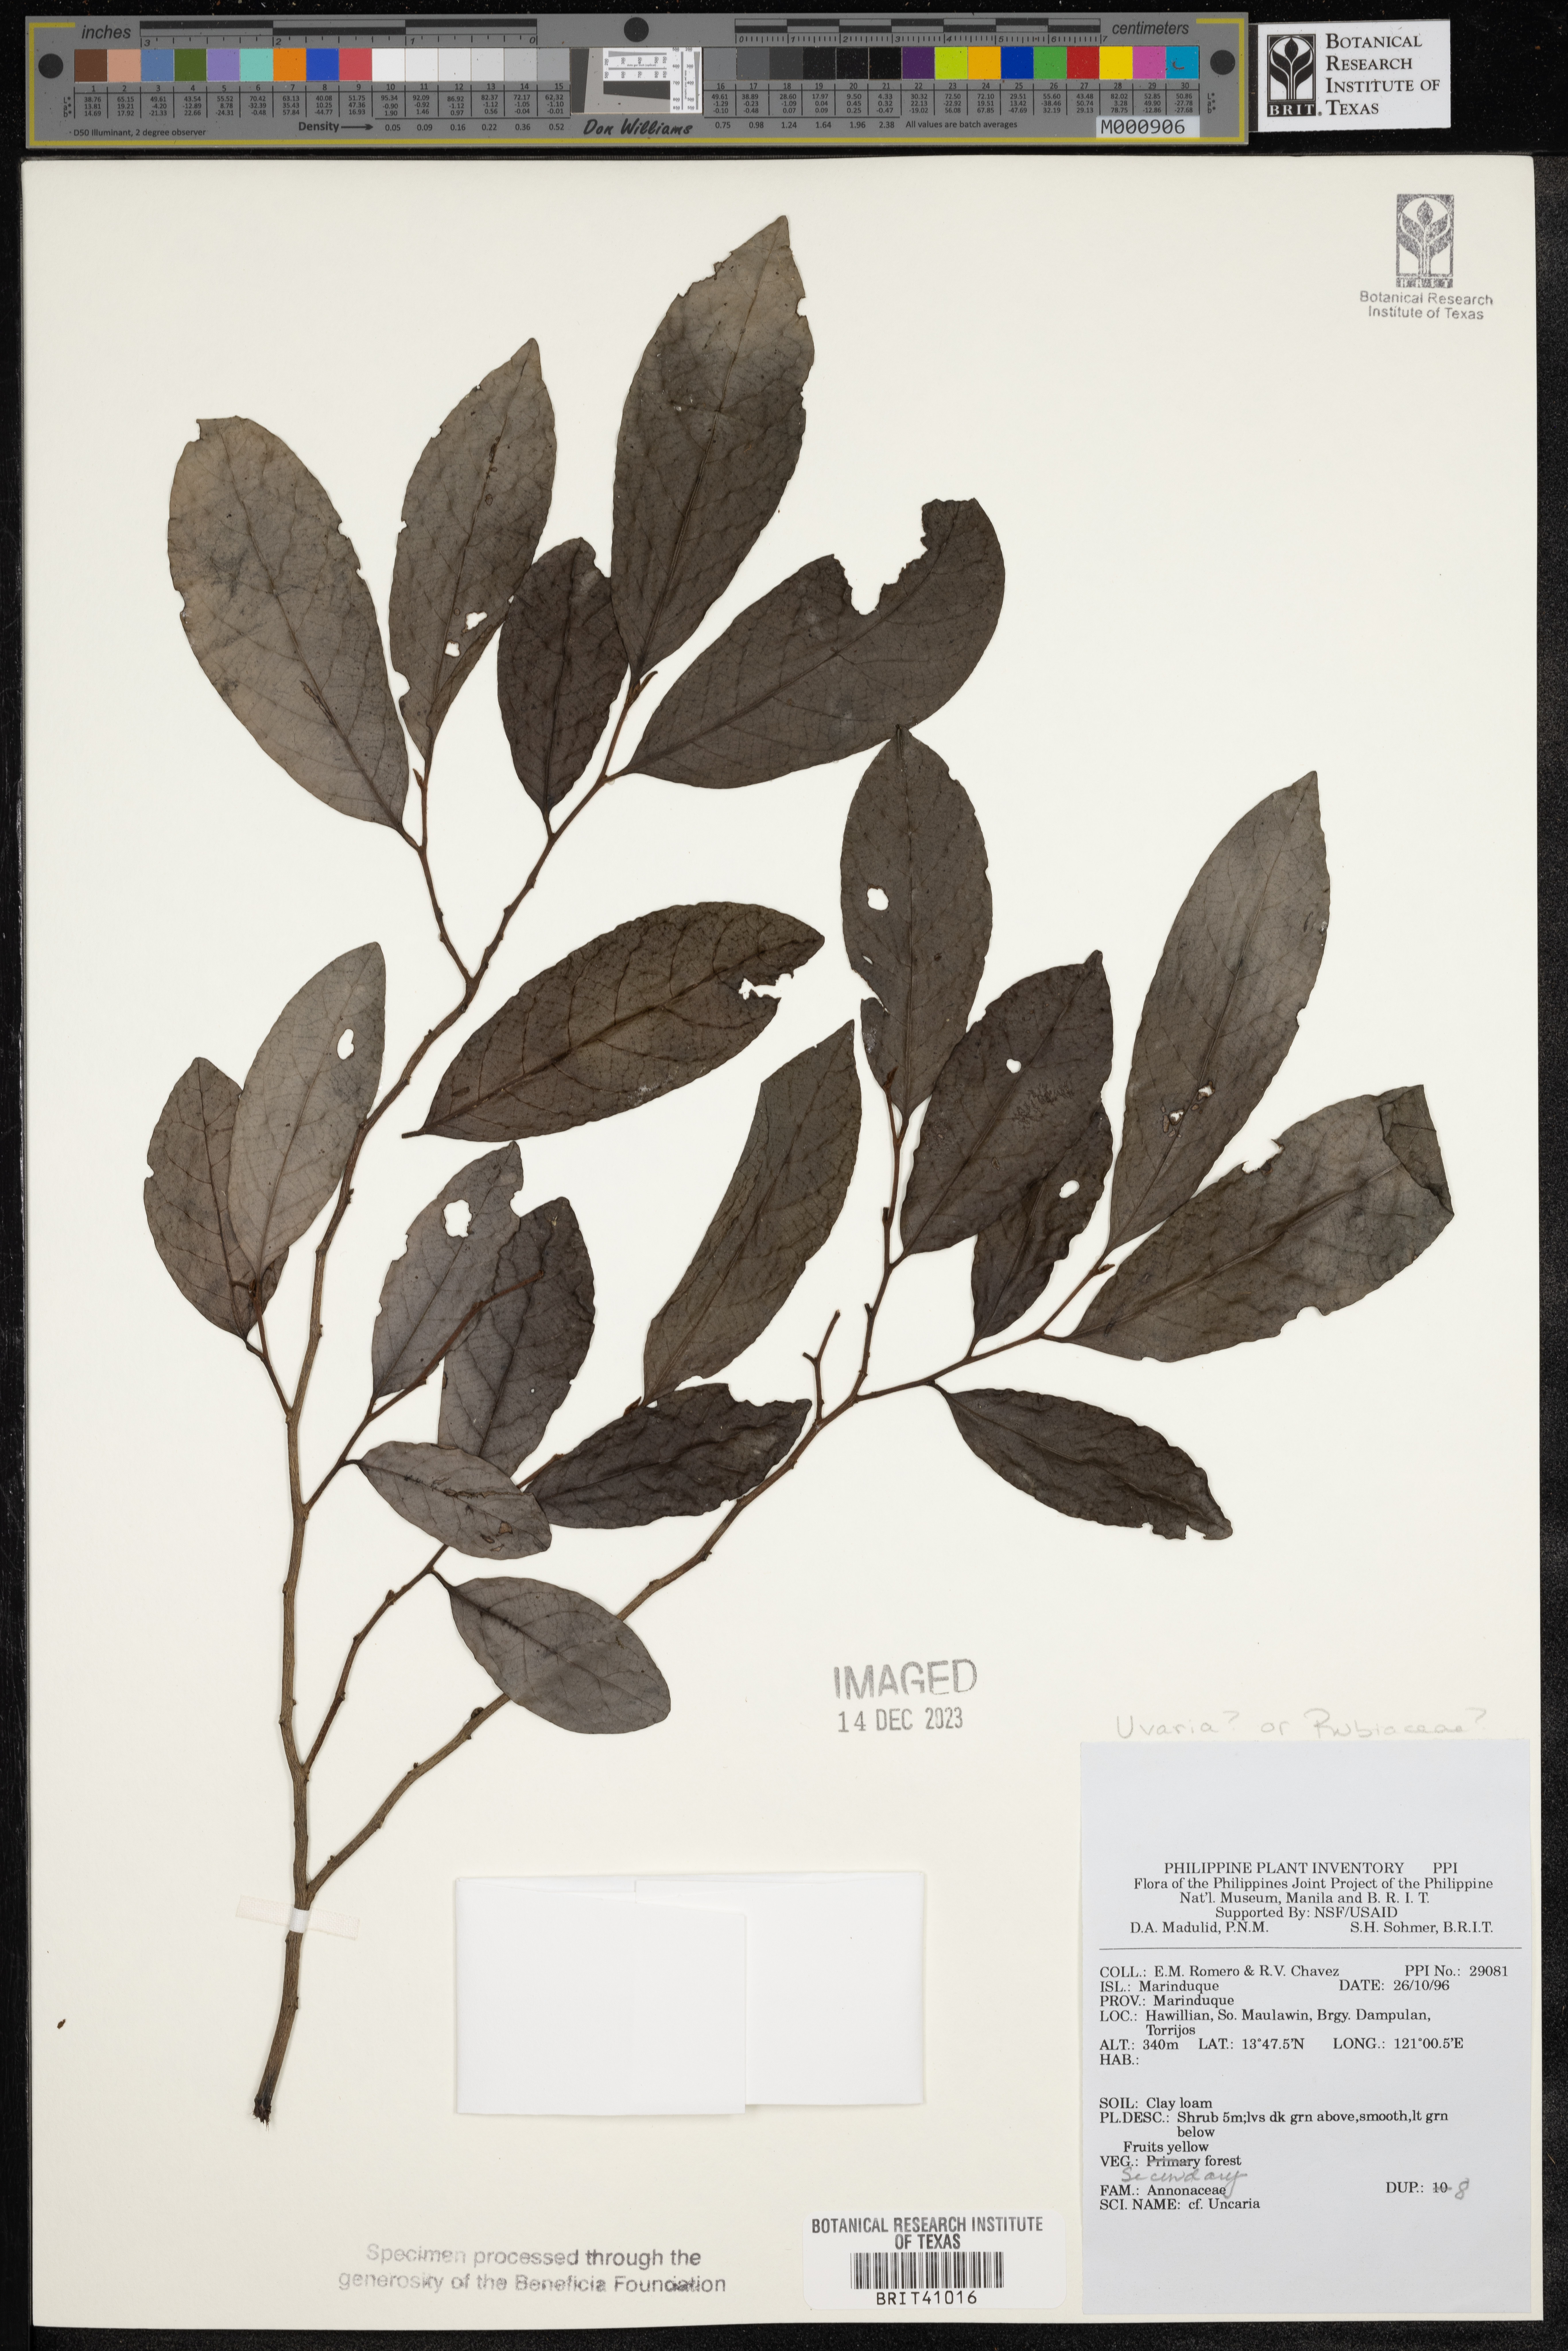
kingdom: Plantae
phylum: Tracheophyta
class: Magnoliopsida
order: Gentianales
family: Rubiaceae
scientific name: Rubiaceae
